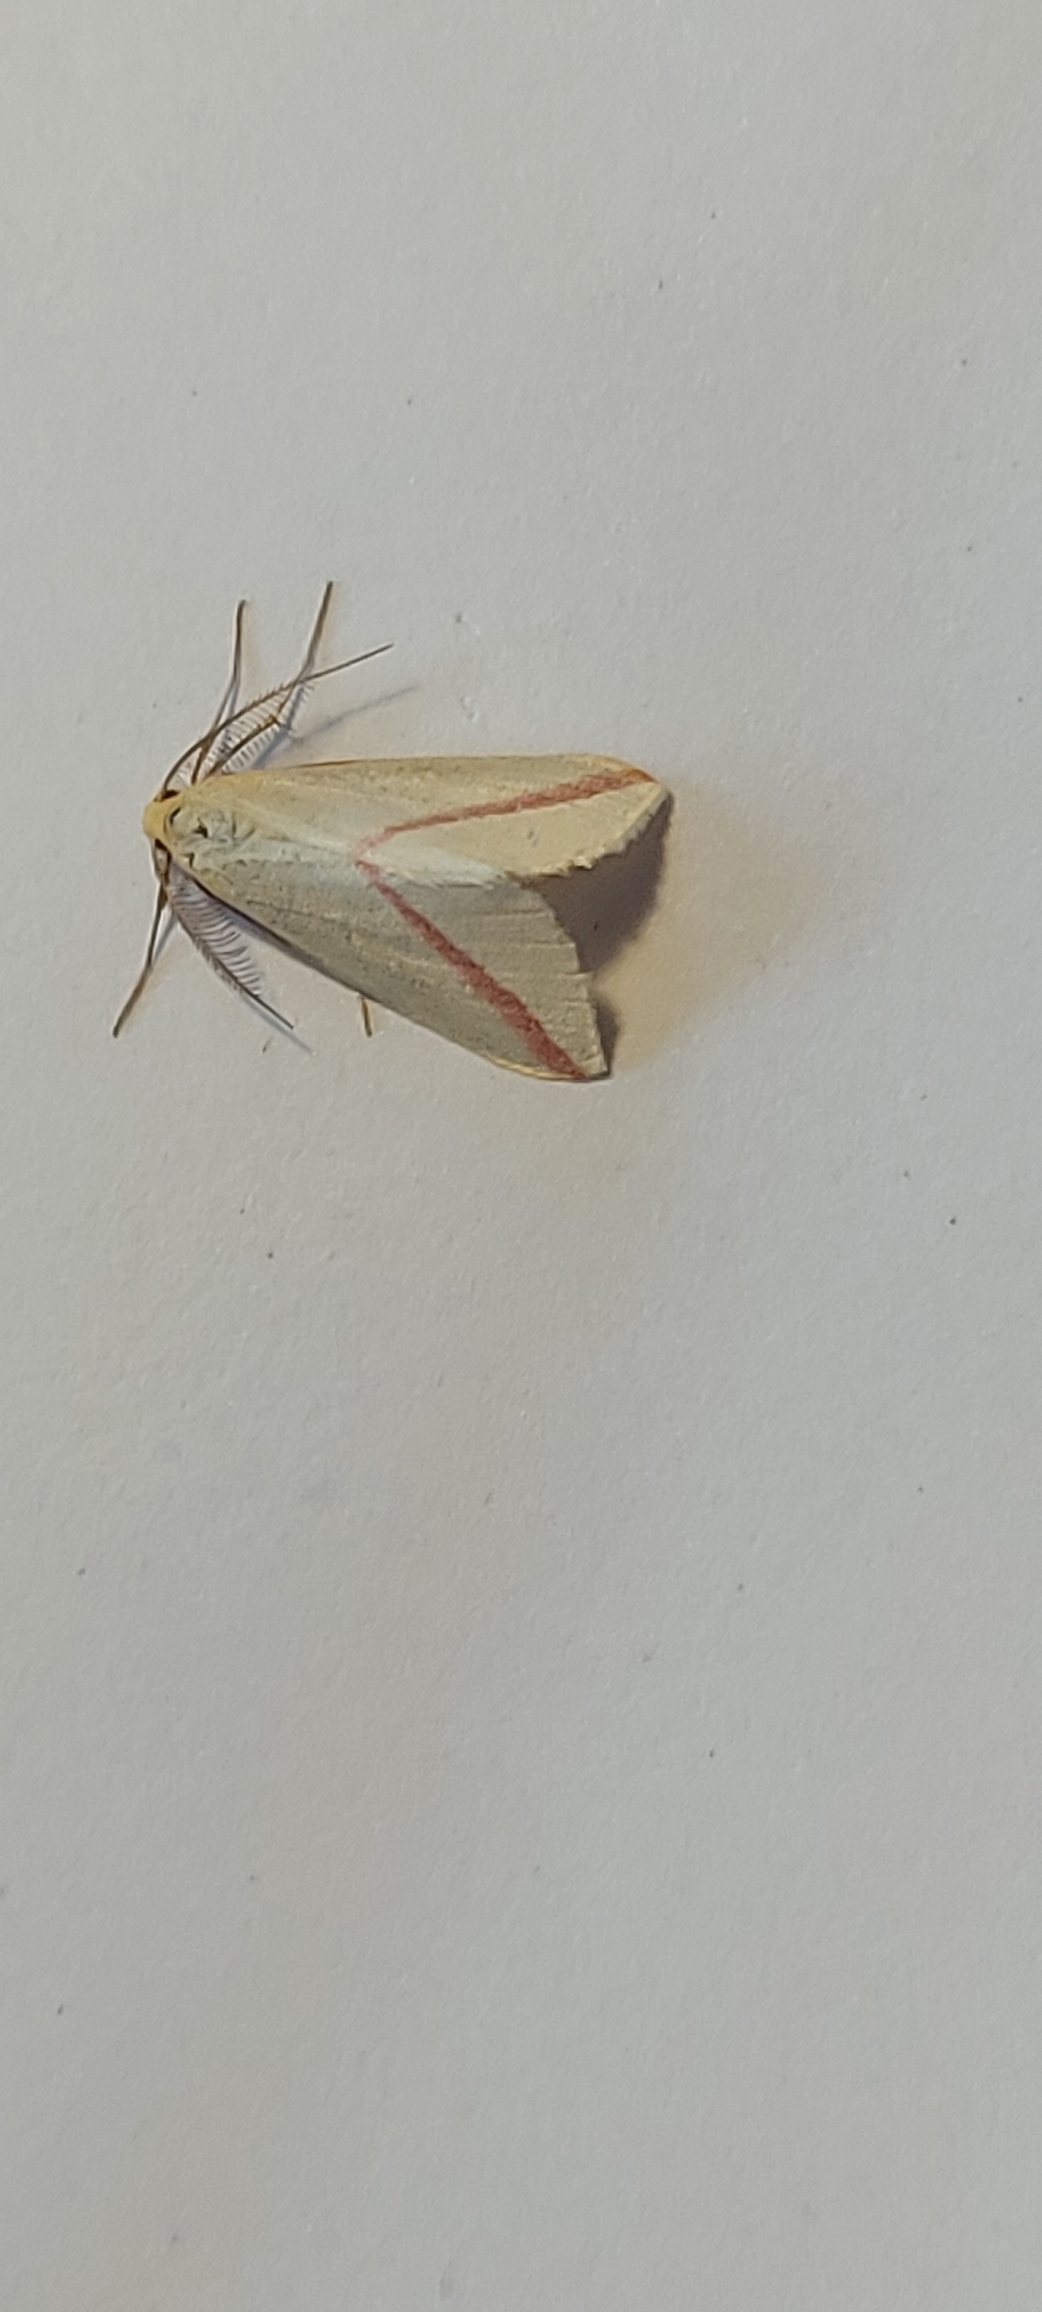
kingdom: Animalia
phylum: Arthropoda
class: Insecta
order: Lepidoptera
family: Geometridae
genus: Rhodometra
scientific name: Rhodometra sacraria
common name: Vestalinden
